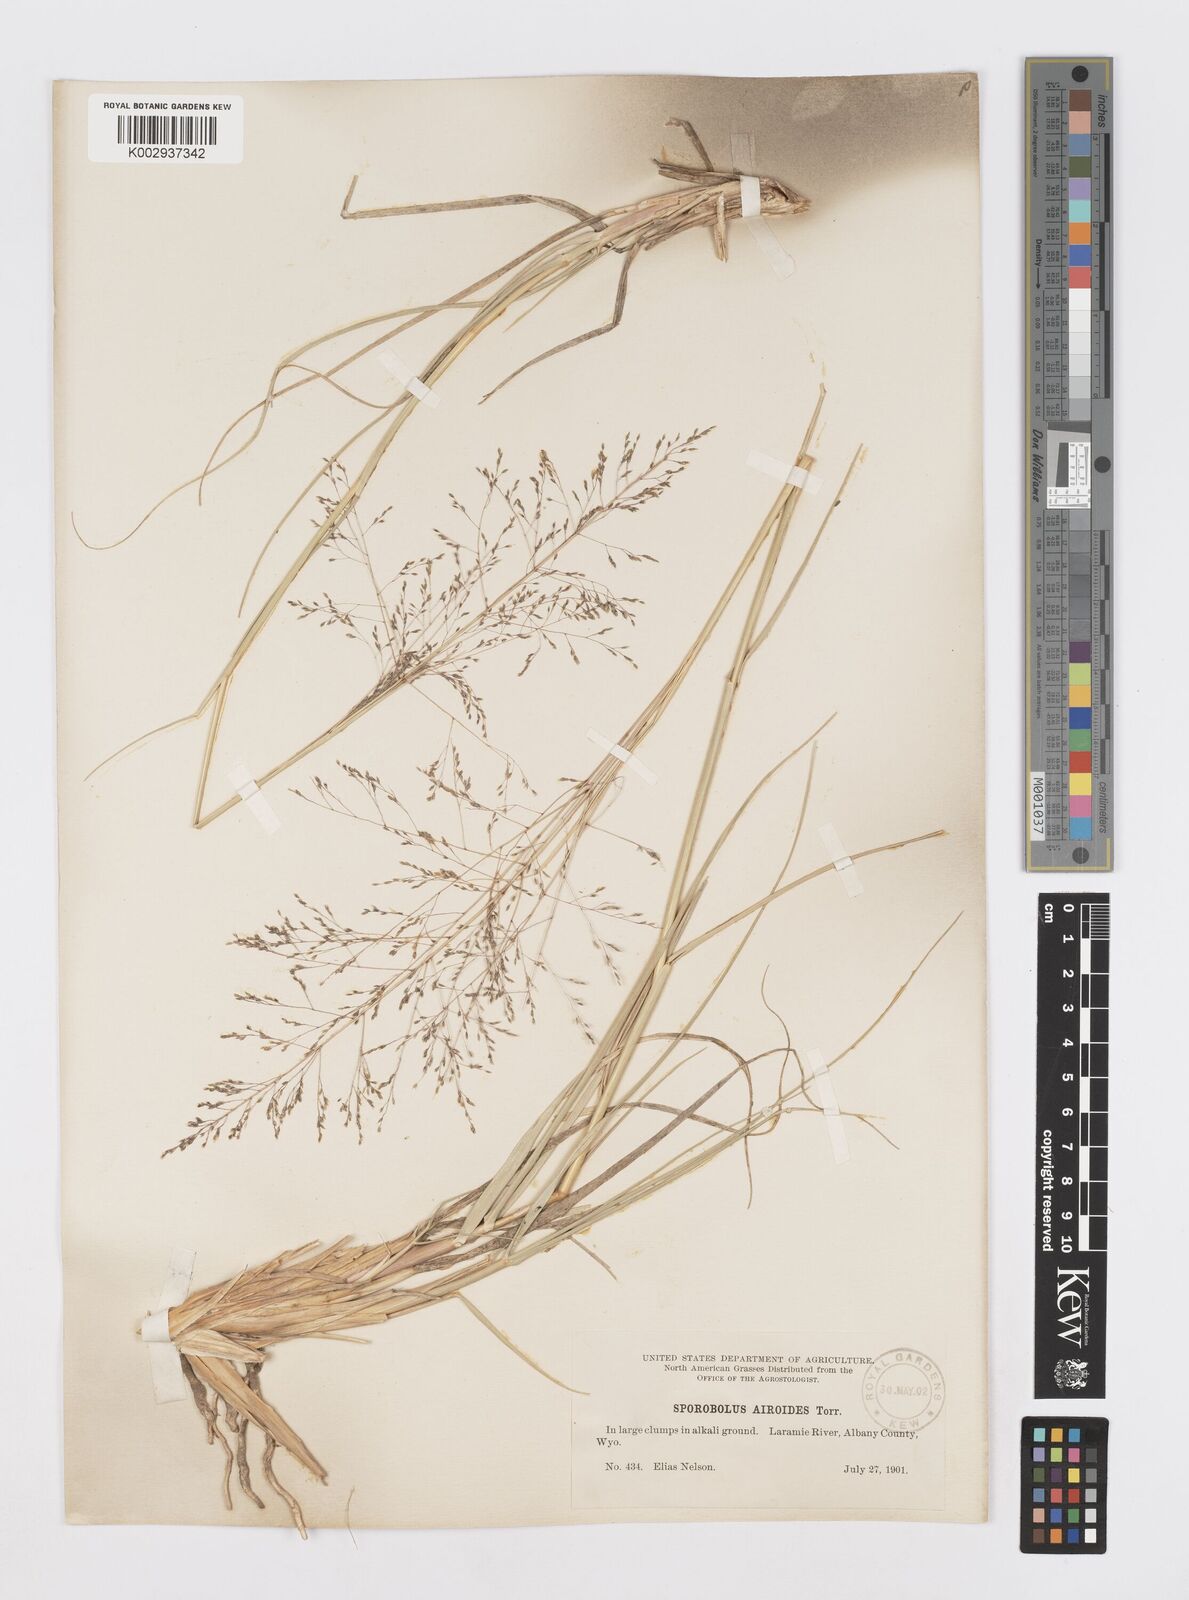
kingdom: Plantae
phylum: Tracheophyta
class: Liliopsida
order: Poales
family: Poaceae
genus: Sporobolus
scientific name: Sporobolus airoides
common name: Alkali sacaton
